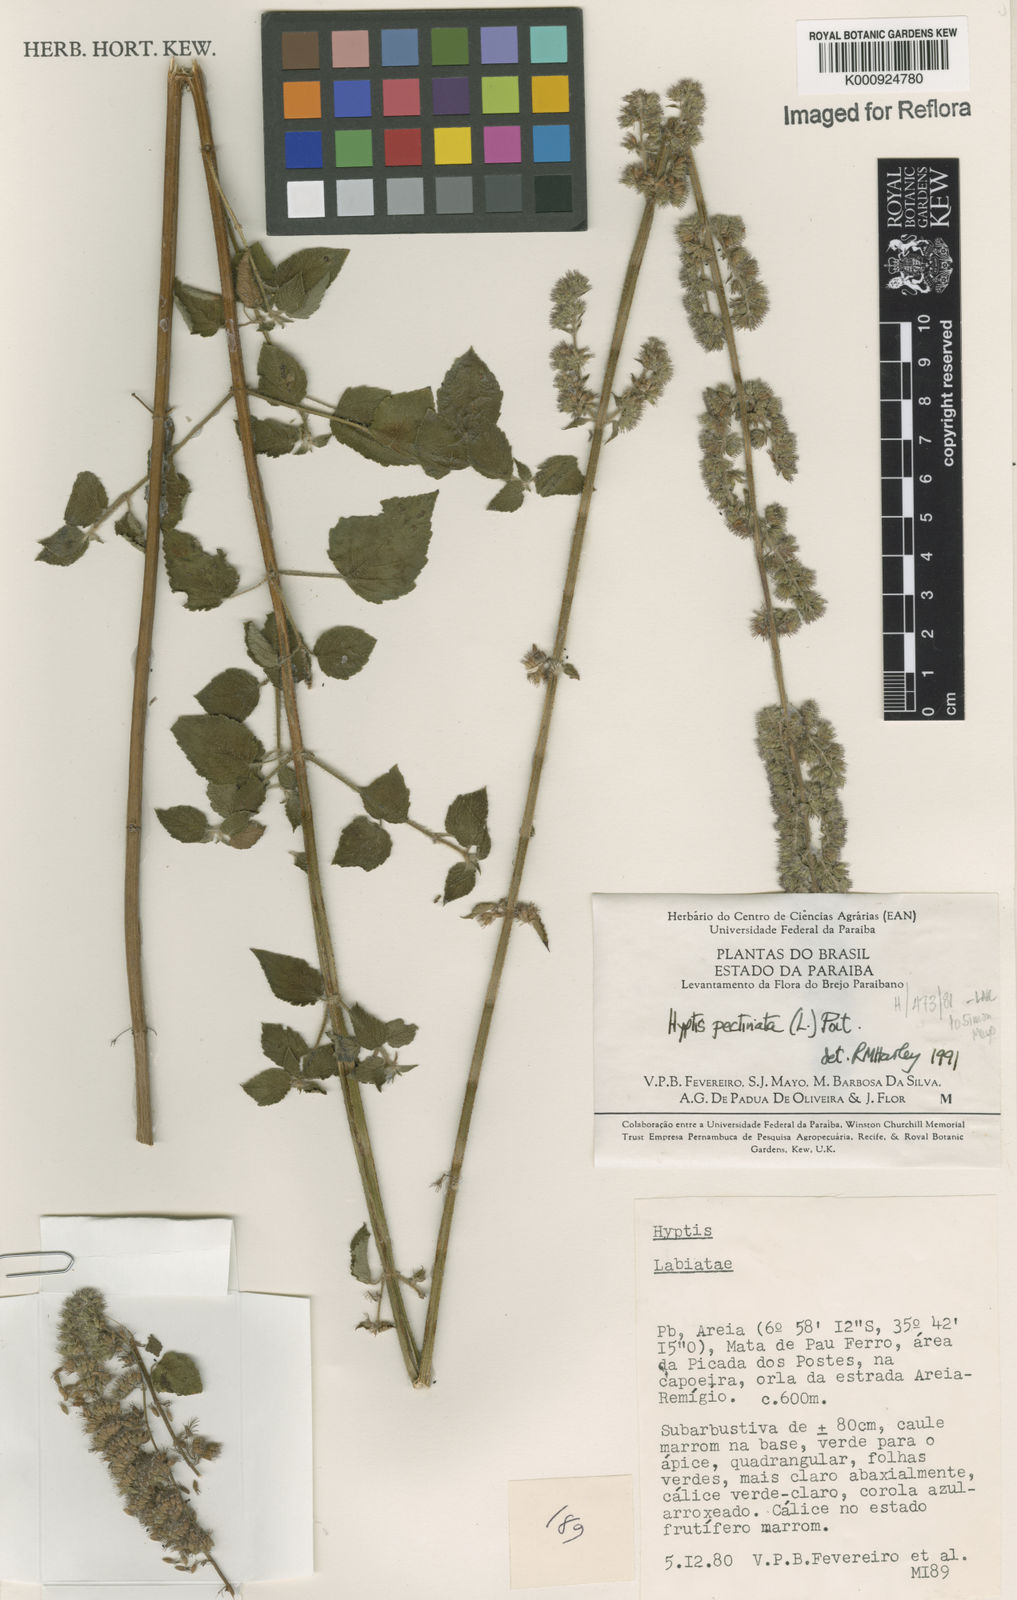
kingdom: Plantae
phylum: Tracheophyta
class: Magnoliopsida
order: Lamiales
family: Lamiaceae
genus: Mesosphaerum
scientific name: Mesosphaerum pectinatum
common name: Comb hyptis
